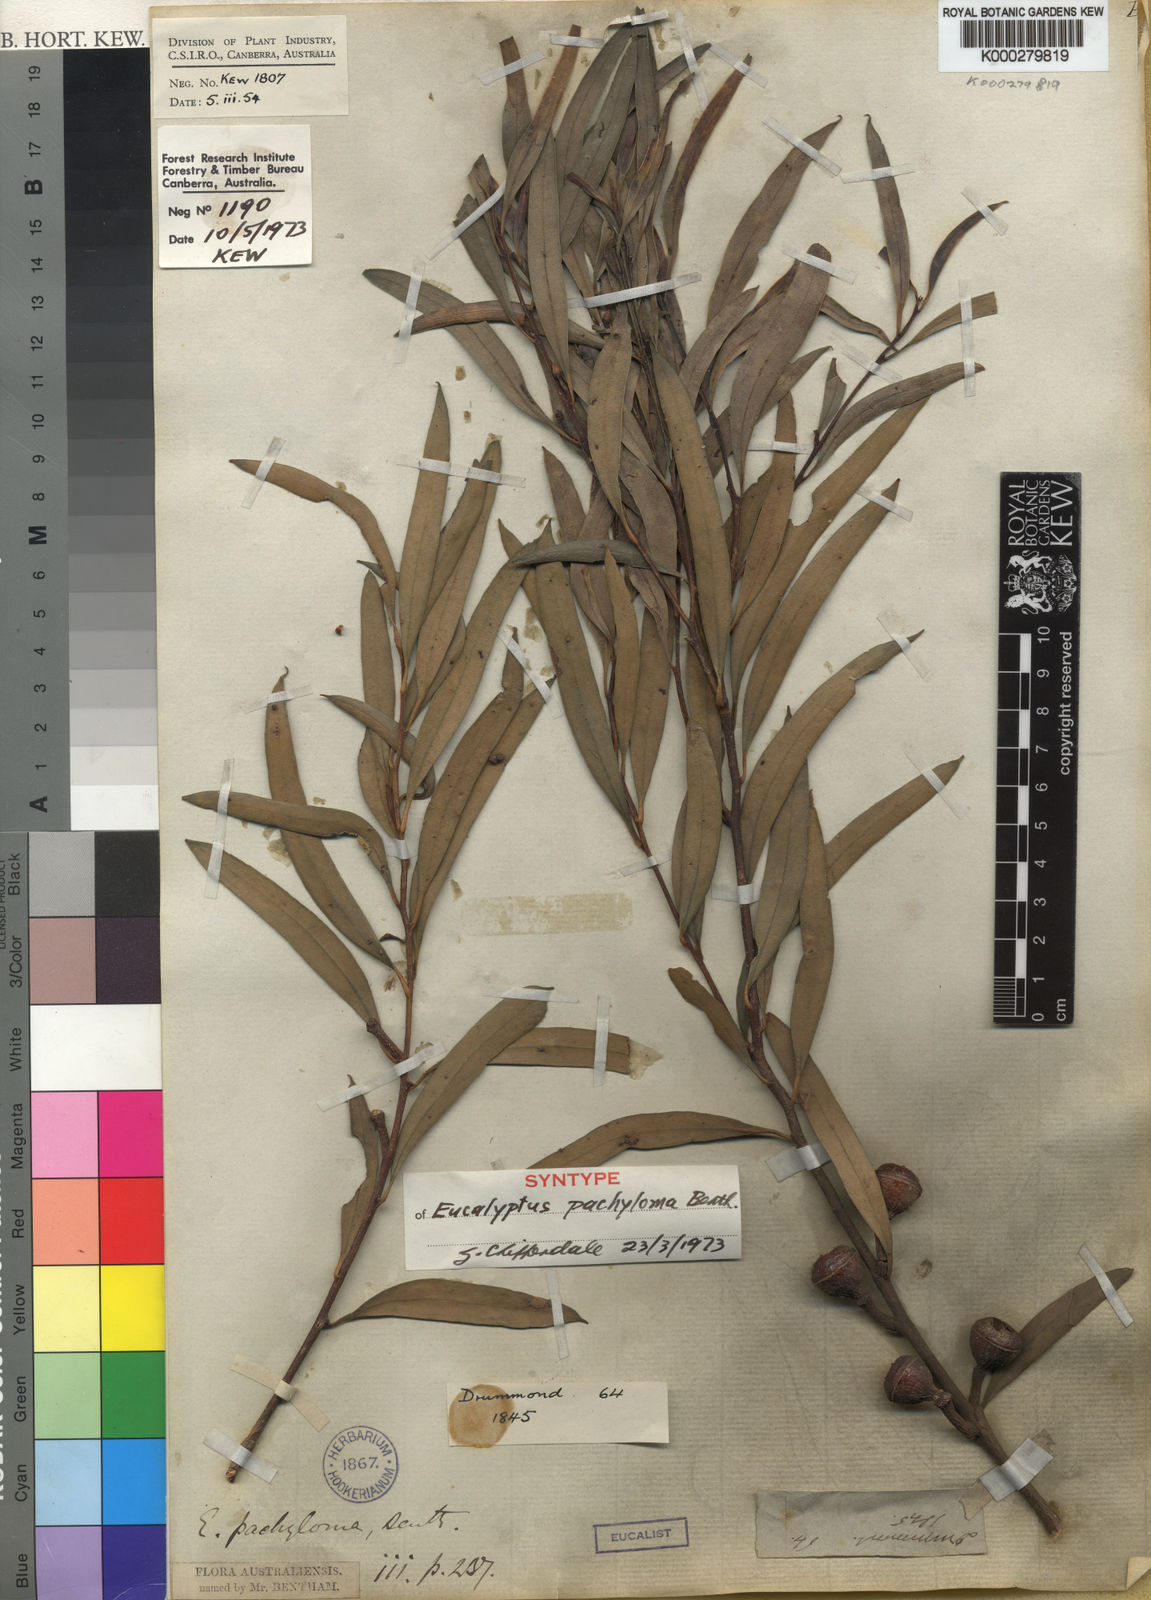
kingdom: Plantae
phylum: Tracheophyta
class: Magnoliopsida
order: Myrtales
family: Myrtaceae
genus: Eucalyptus
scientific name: Eucalyptus pachyloma
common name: Kalgan plains mallee
